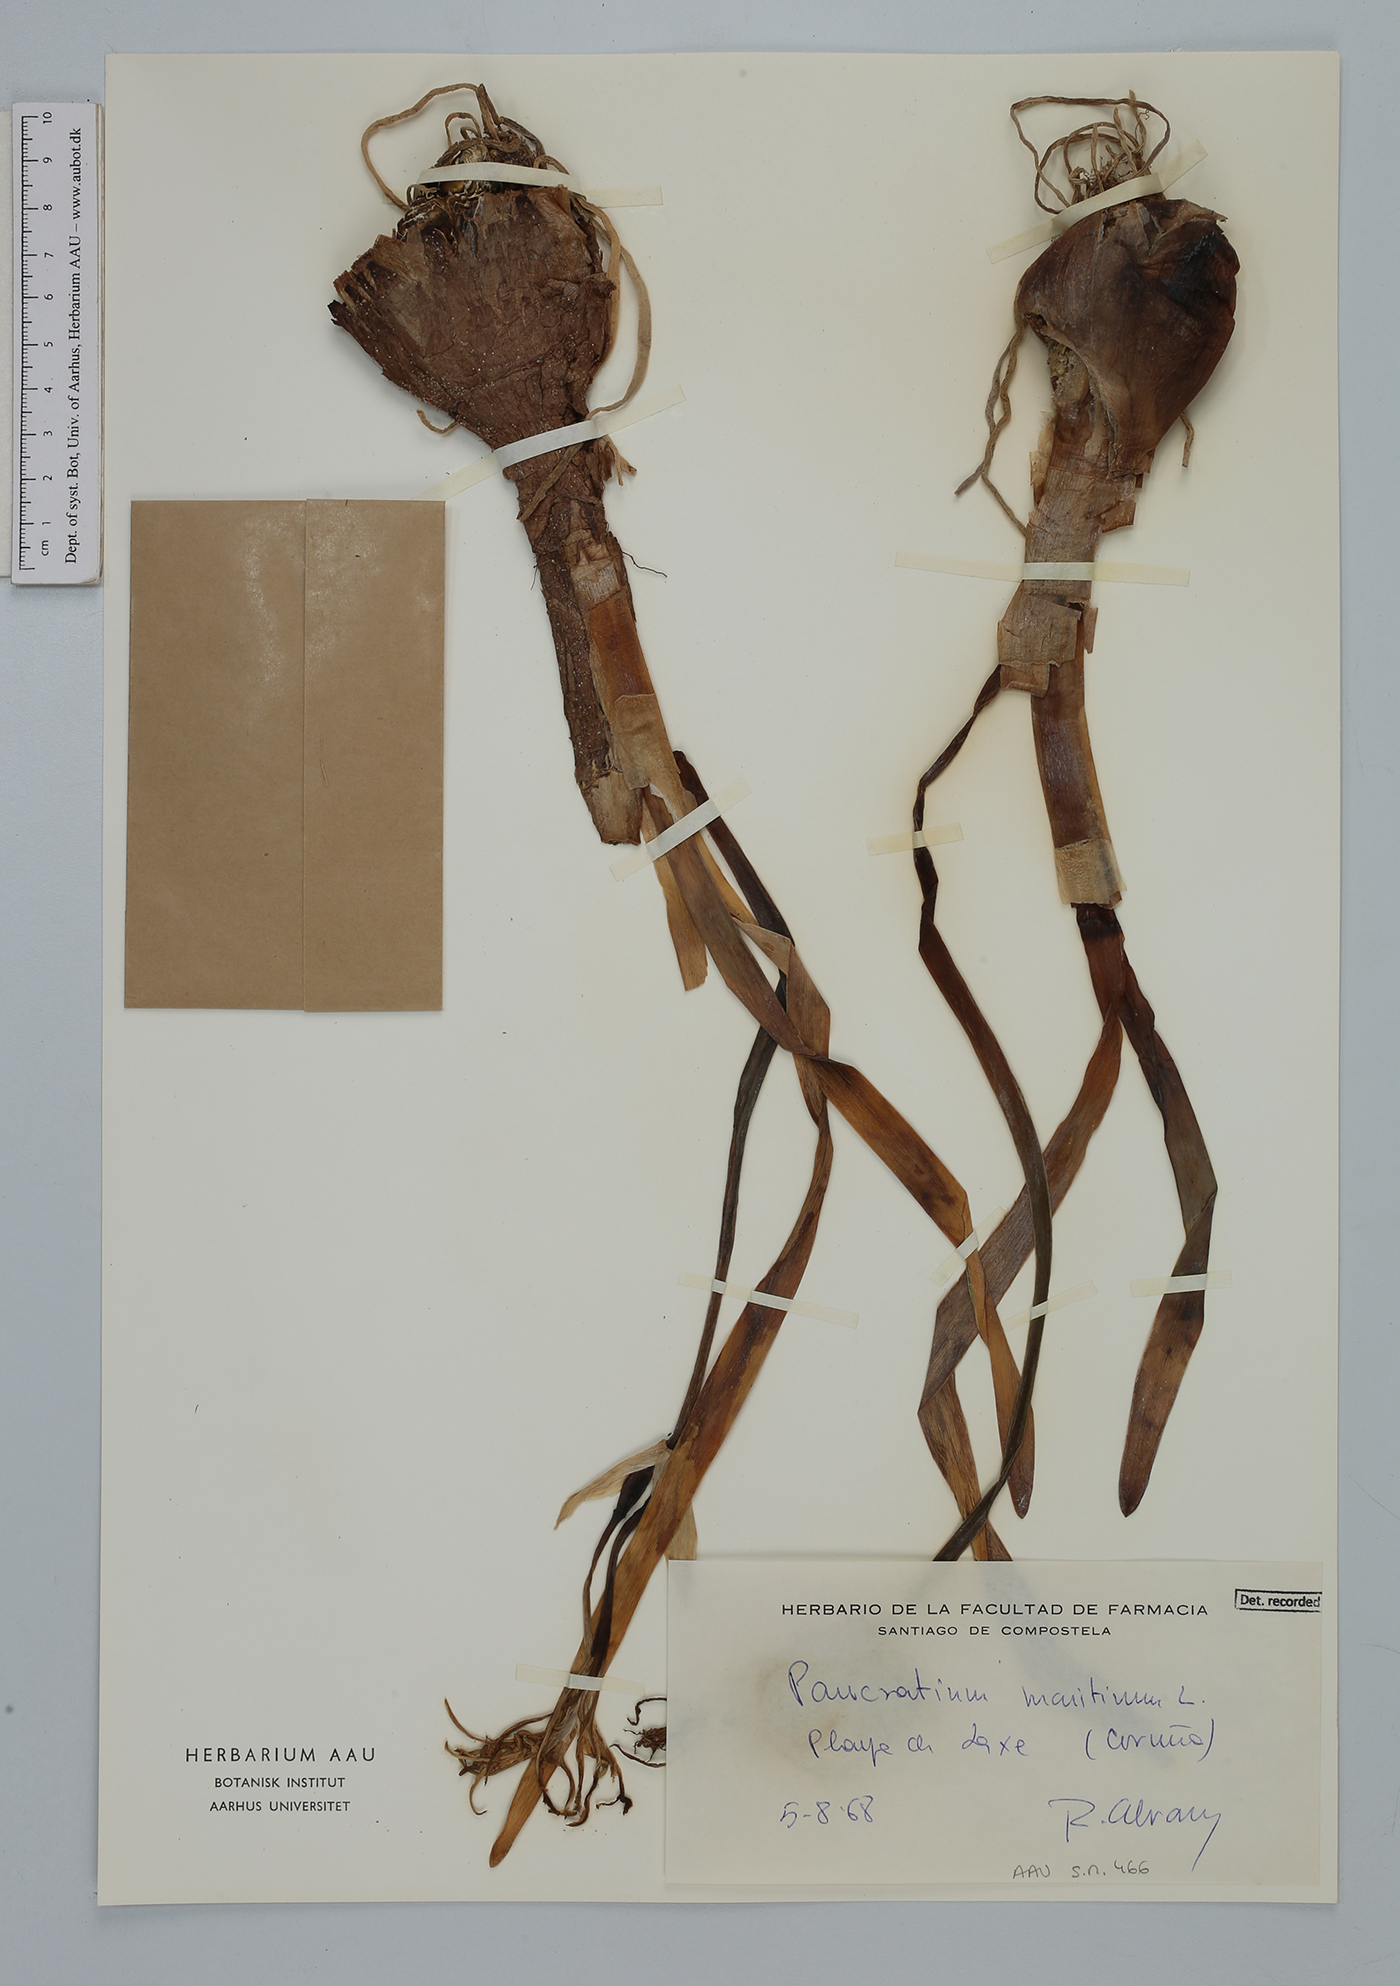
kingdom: Plantae
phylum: Tracheophyta
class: Liliopsida
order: Asparagales
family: Amaryllidaceae
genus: Pancratium
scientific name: Pancratium maritimum
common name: Sea-daffodil
